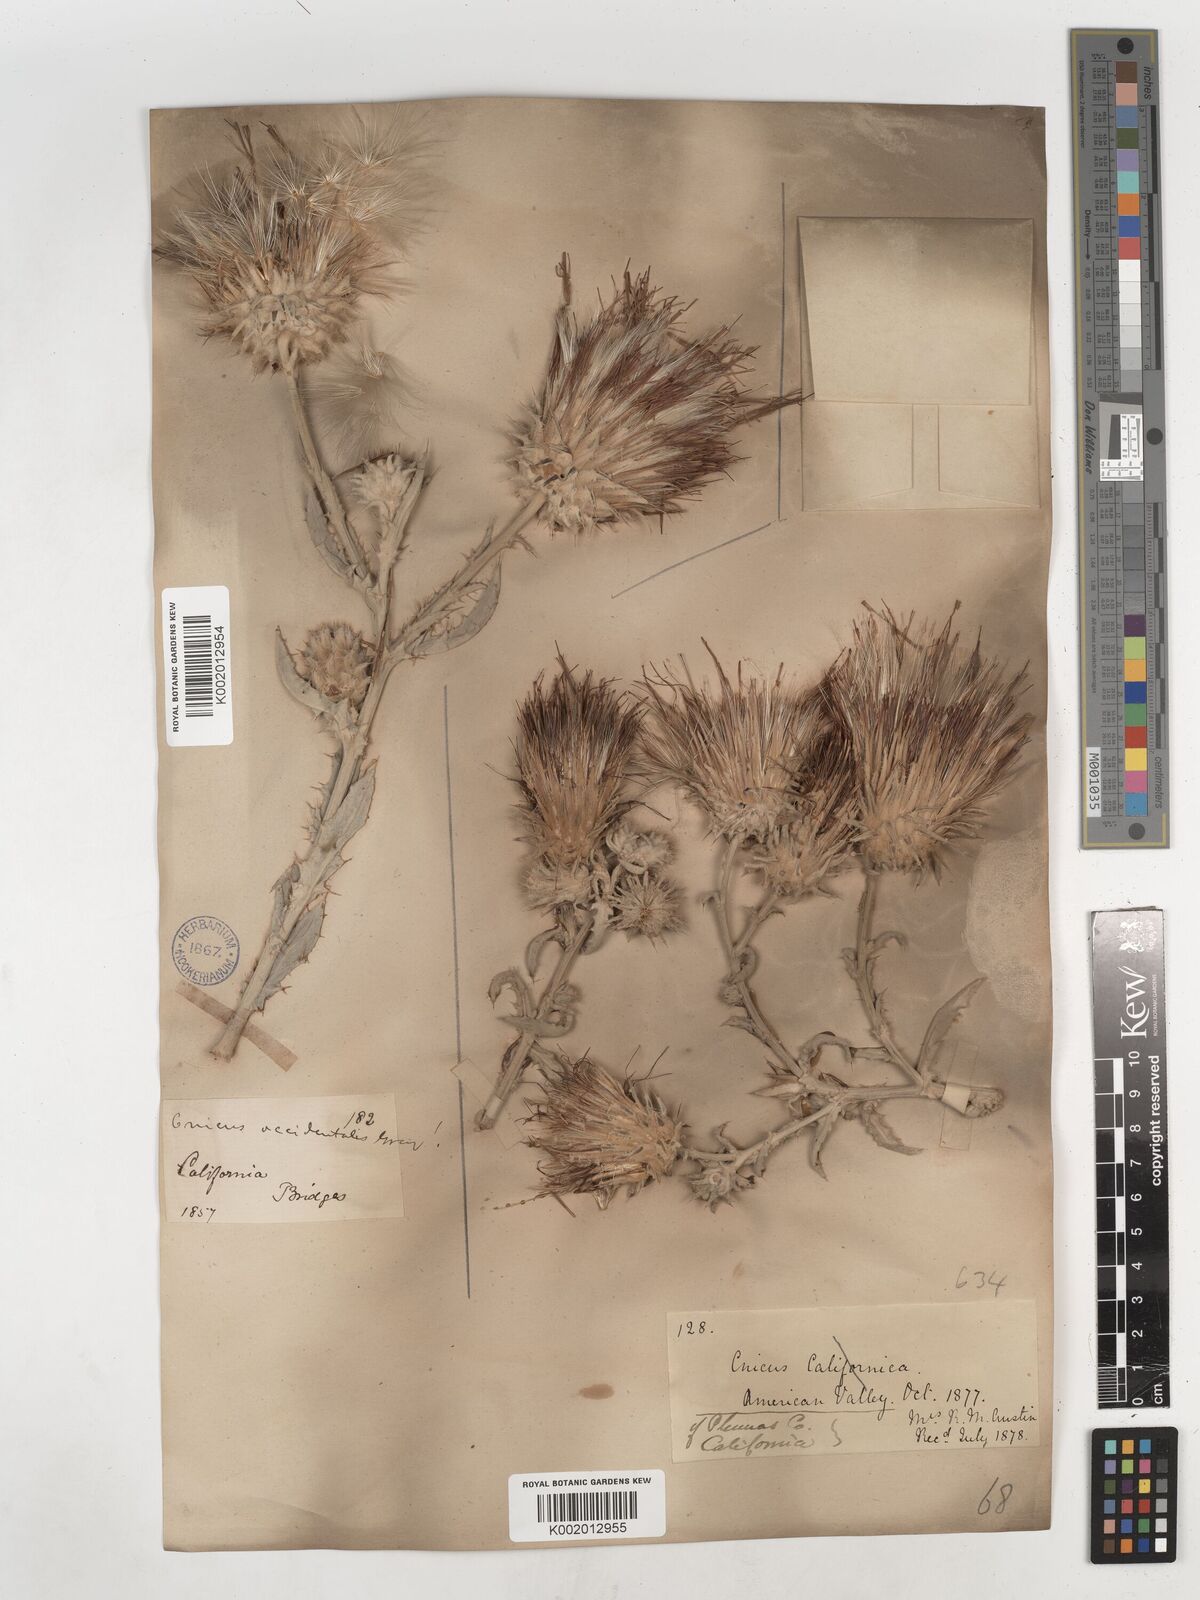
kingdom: Plantae
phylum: Tracheophyta
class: Magnoliopsida
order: Asterales
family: Asteraceae
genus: Cirsium
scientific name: Cirsium occidentale
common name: Western thistle
